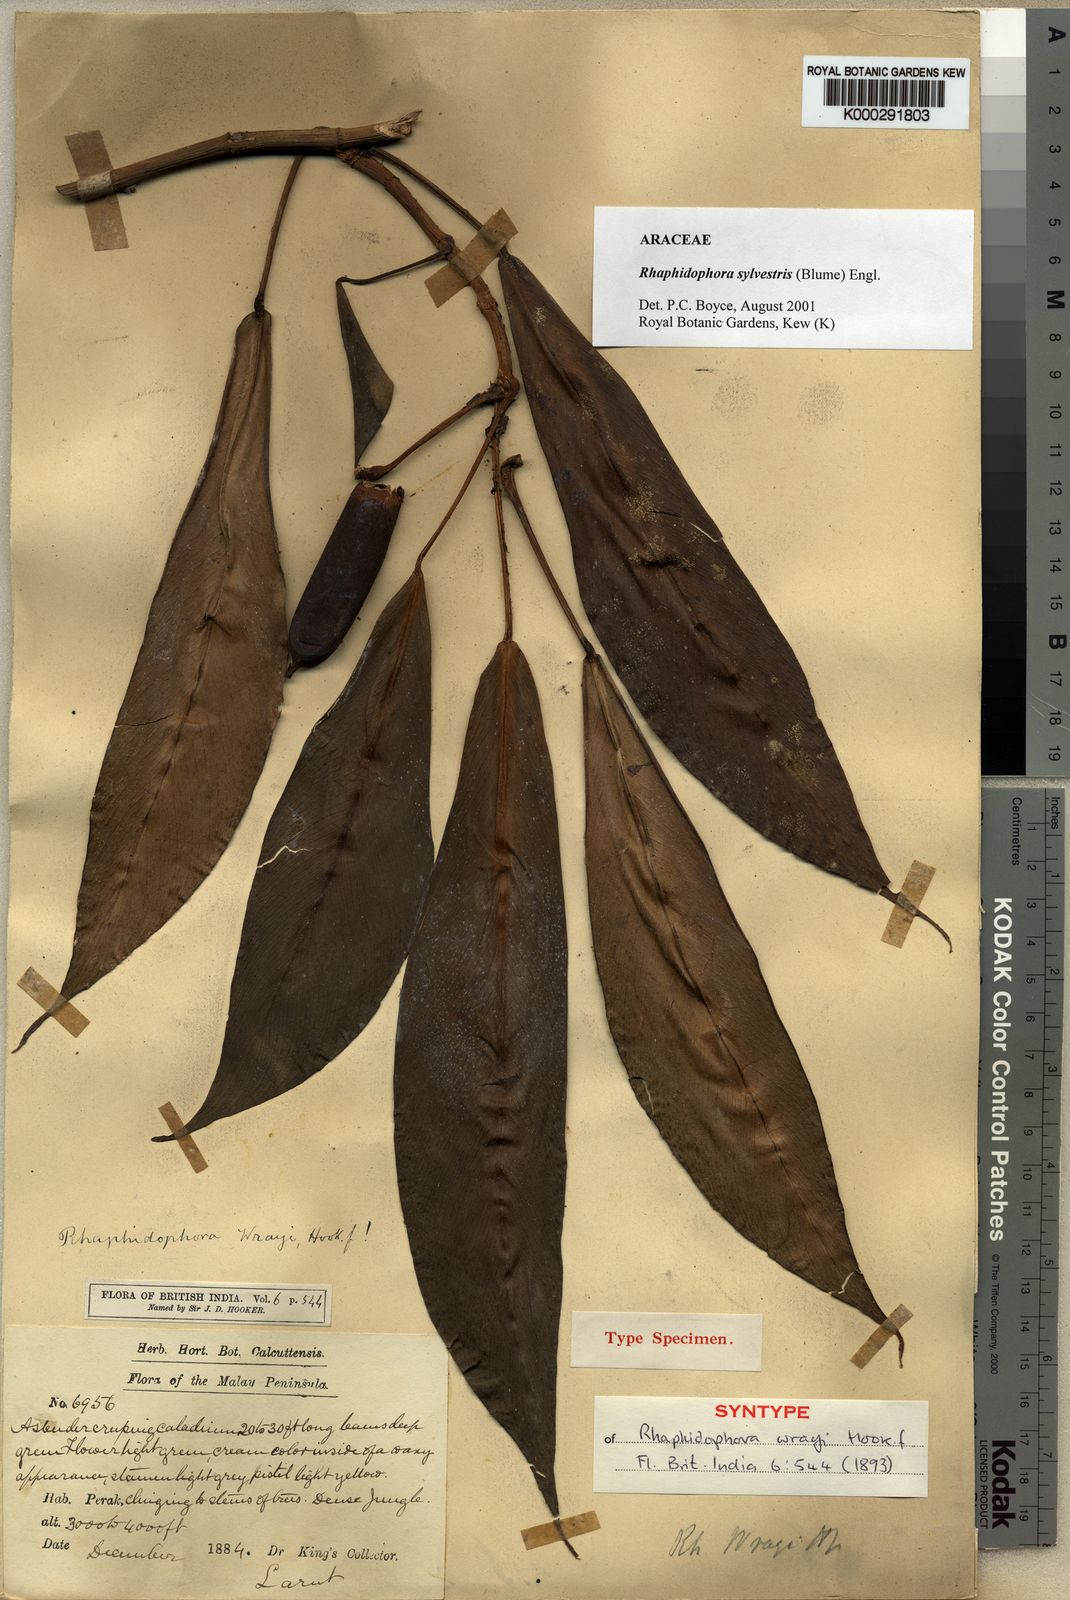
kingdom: Plantae
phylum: Tracheophyta
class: Liliopsida
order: Alismatales
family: Araceae
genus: Rhaphidophora
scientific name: Rhaphidophora sylvestris
